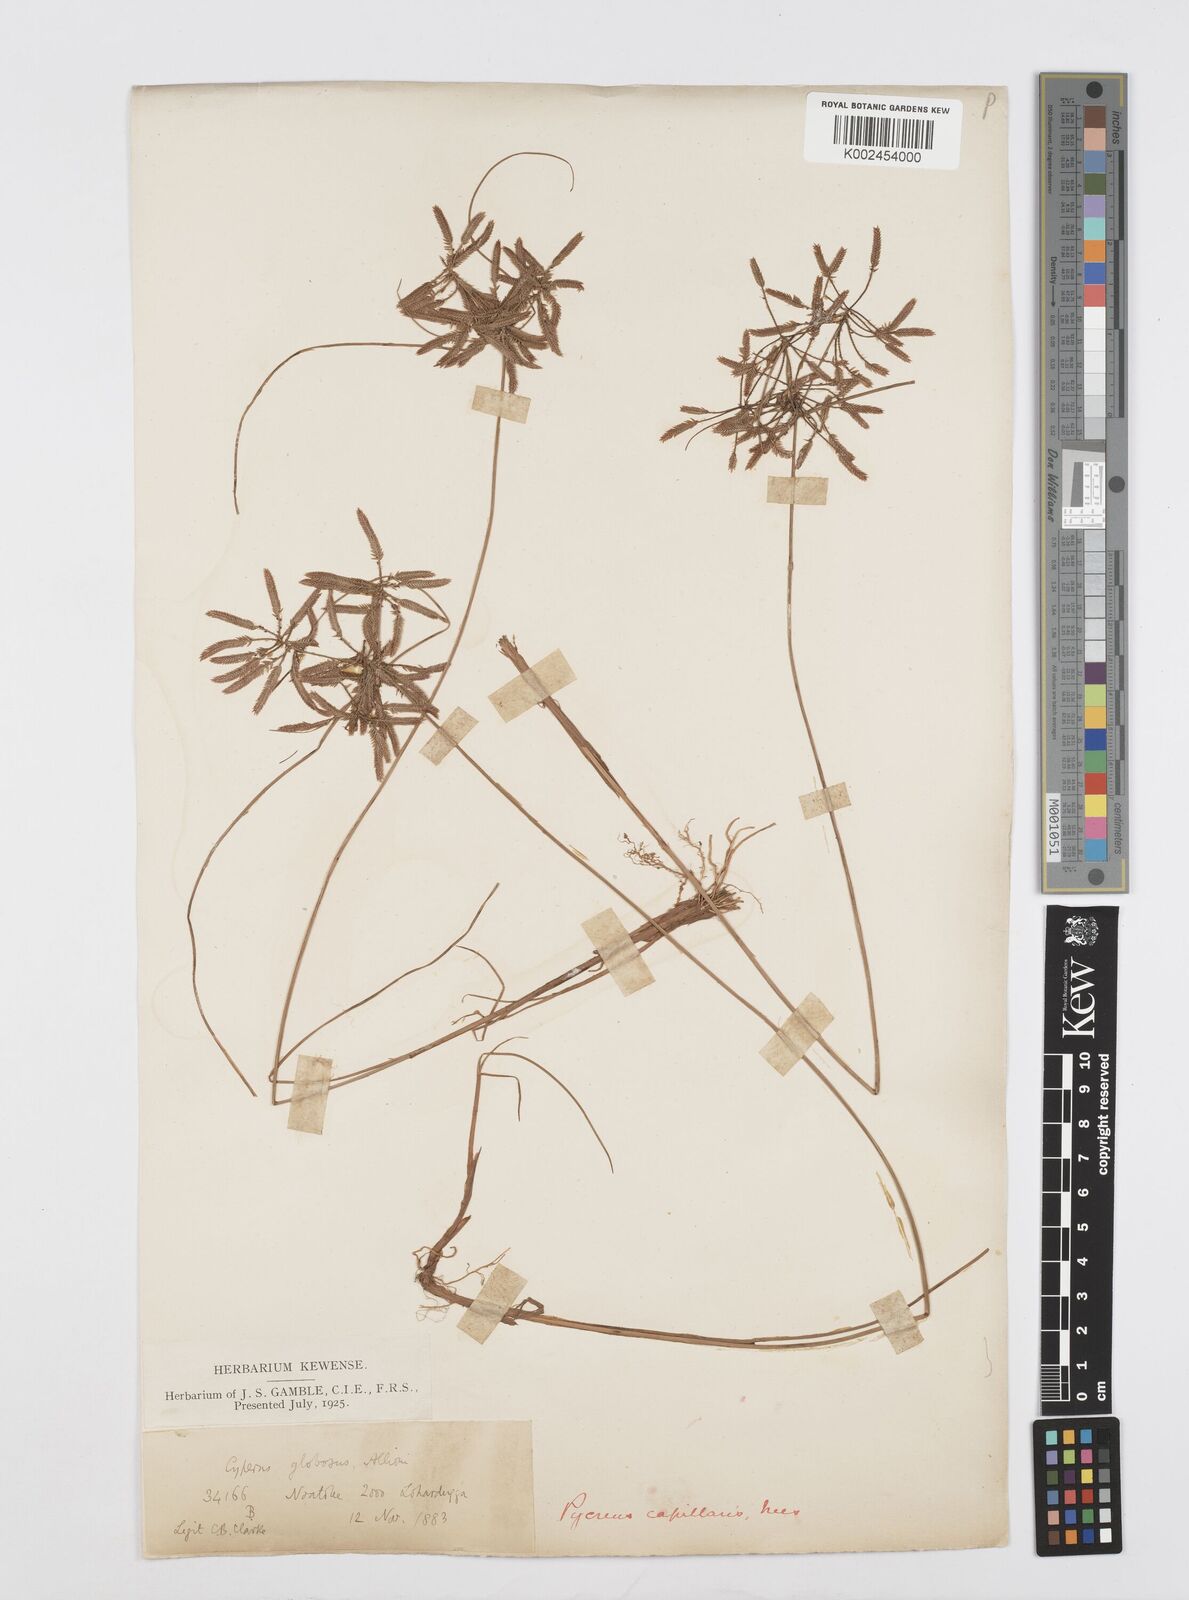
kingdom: Plantae
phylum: Tracheophyta
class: Liliopsida
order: Poales
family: Cyperaceae
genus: Cyperus
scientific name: Cyperus flavidus
